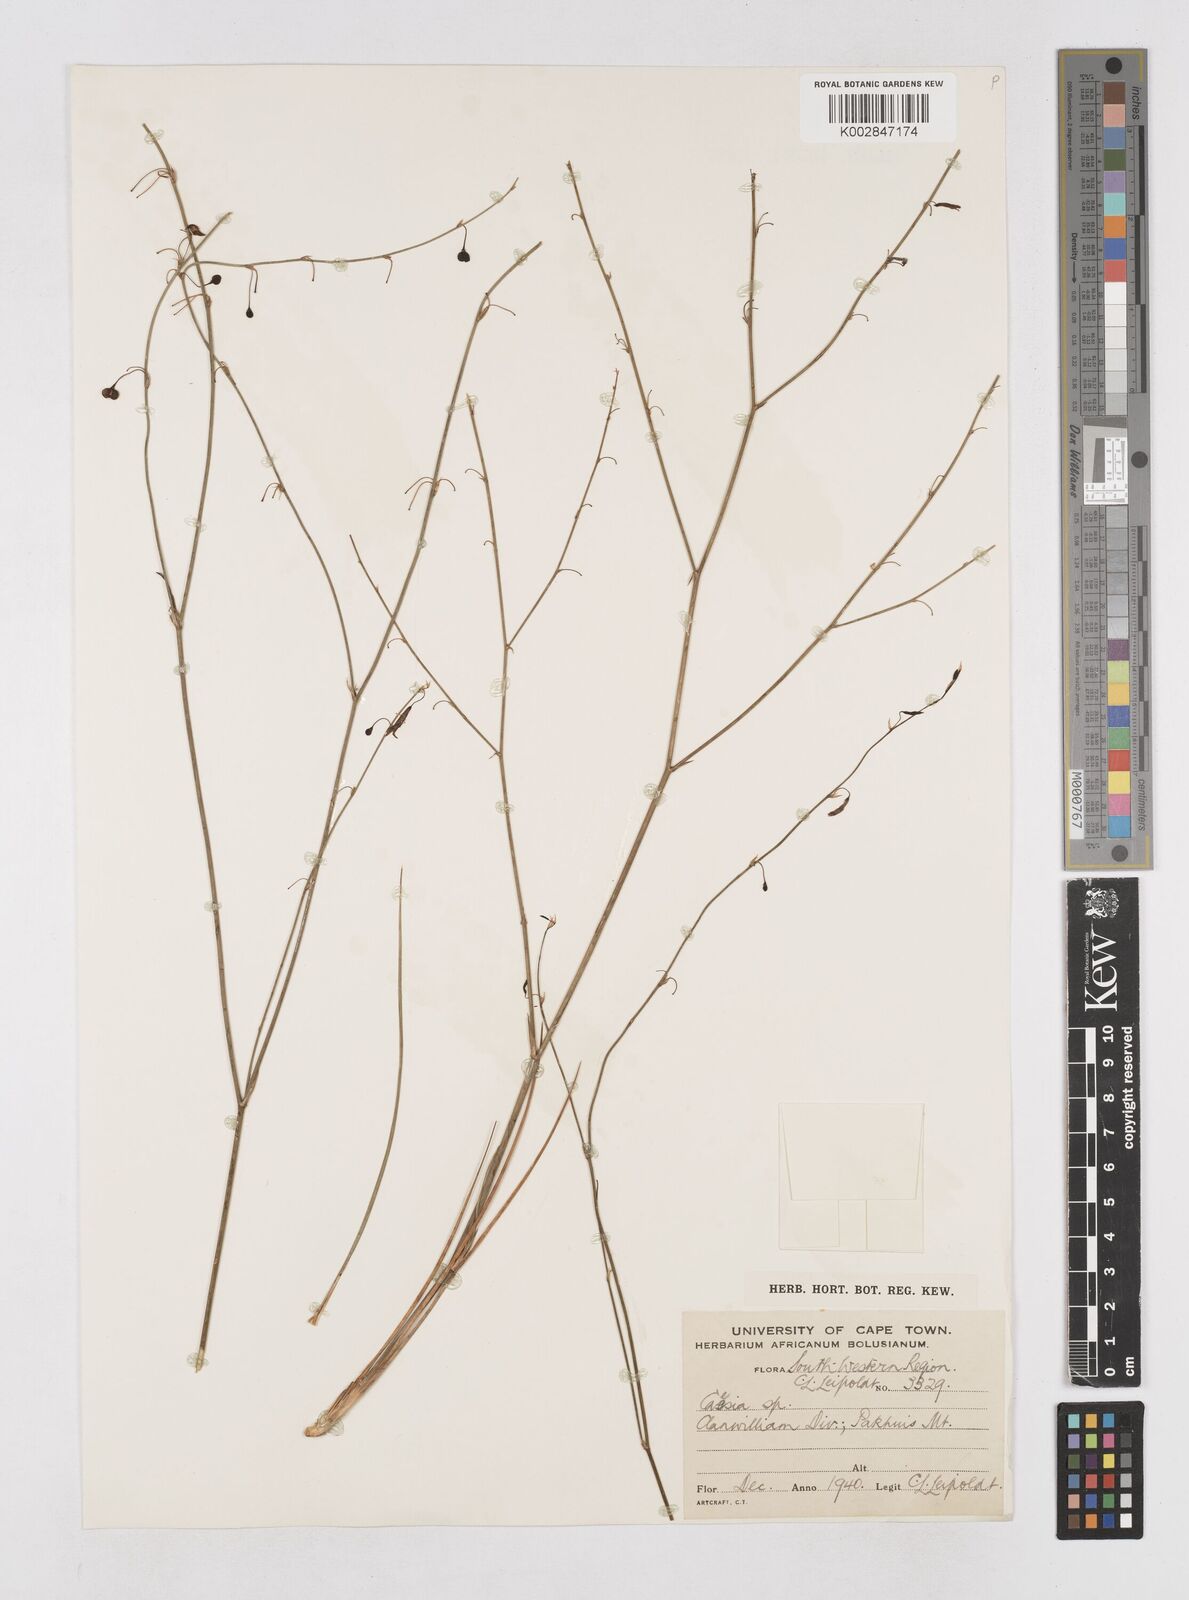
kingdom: Plantae
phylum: Tracheophyta
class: Liliopsida
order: Asparagales
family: Asphodelaceae
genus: Caesia
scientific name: Caesia contorta
